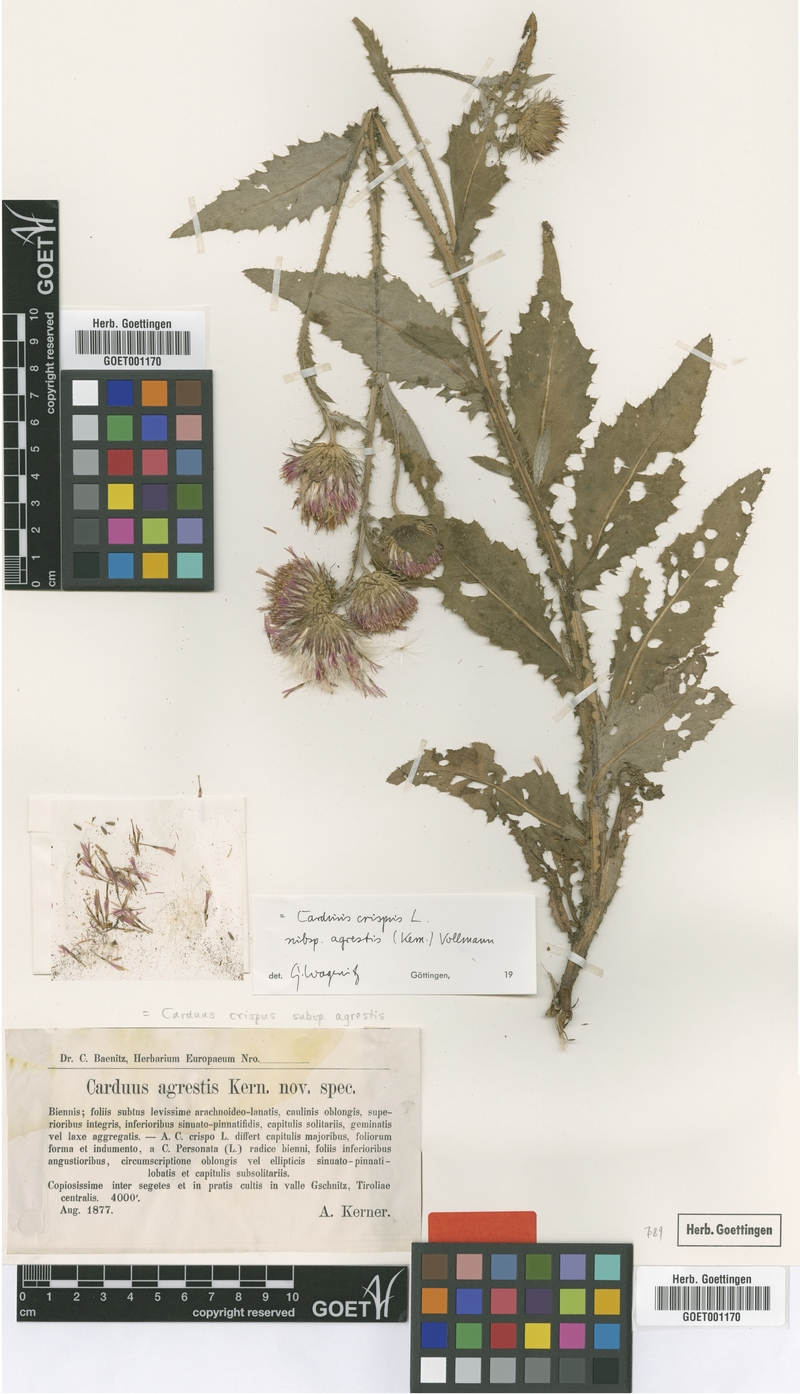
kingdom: Plantae
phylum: Tracheophyta
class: Magnoliopsida
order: Asterales
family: Asteraceae
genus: Carduus
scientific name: Carduus crispus
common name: Welted thistle
